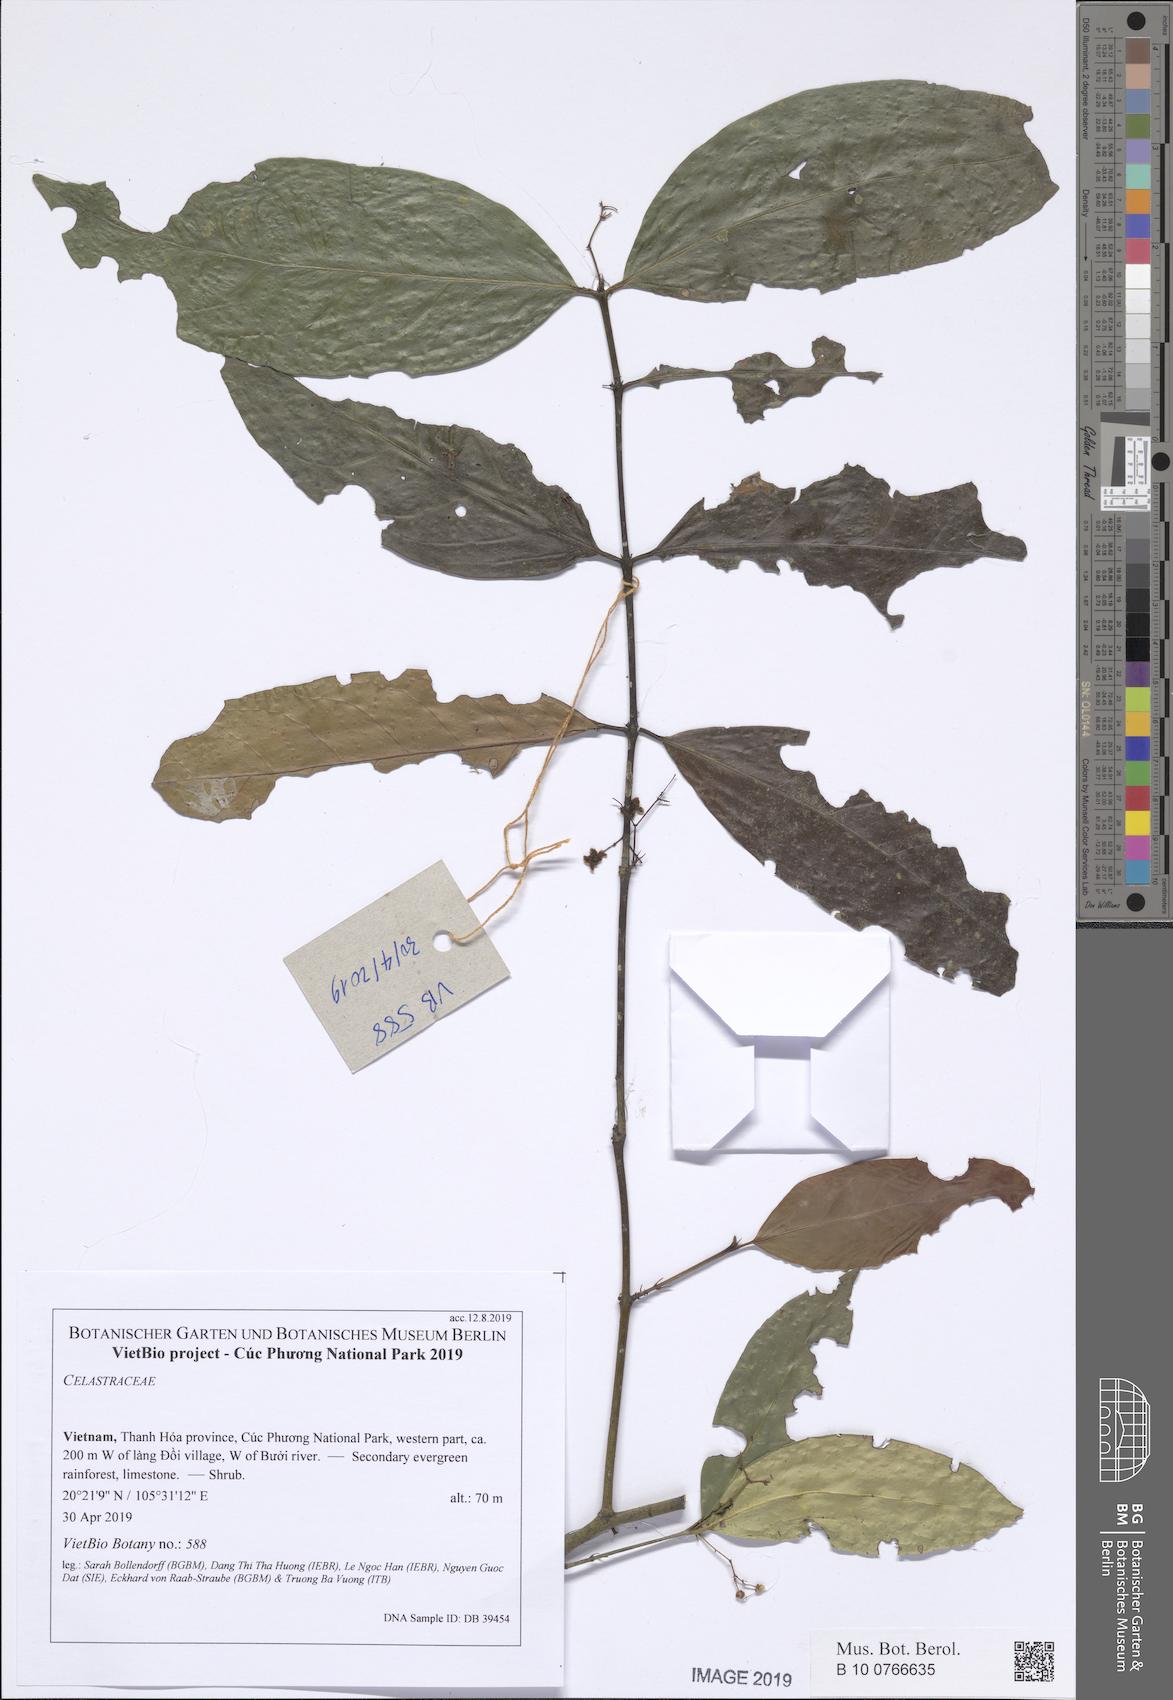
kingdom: Plantae
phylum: Tracheophyta
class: Magnoliopsida
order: Celastrales
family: Celastraceae
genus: Glyptopetalum
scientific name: Glyptopetalum
